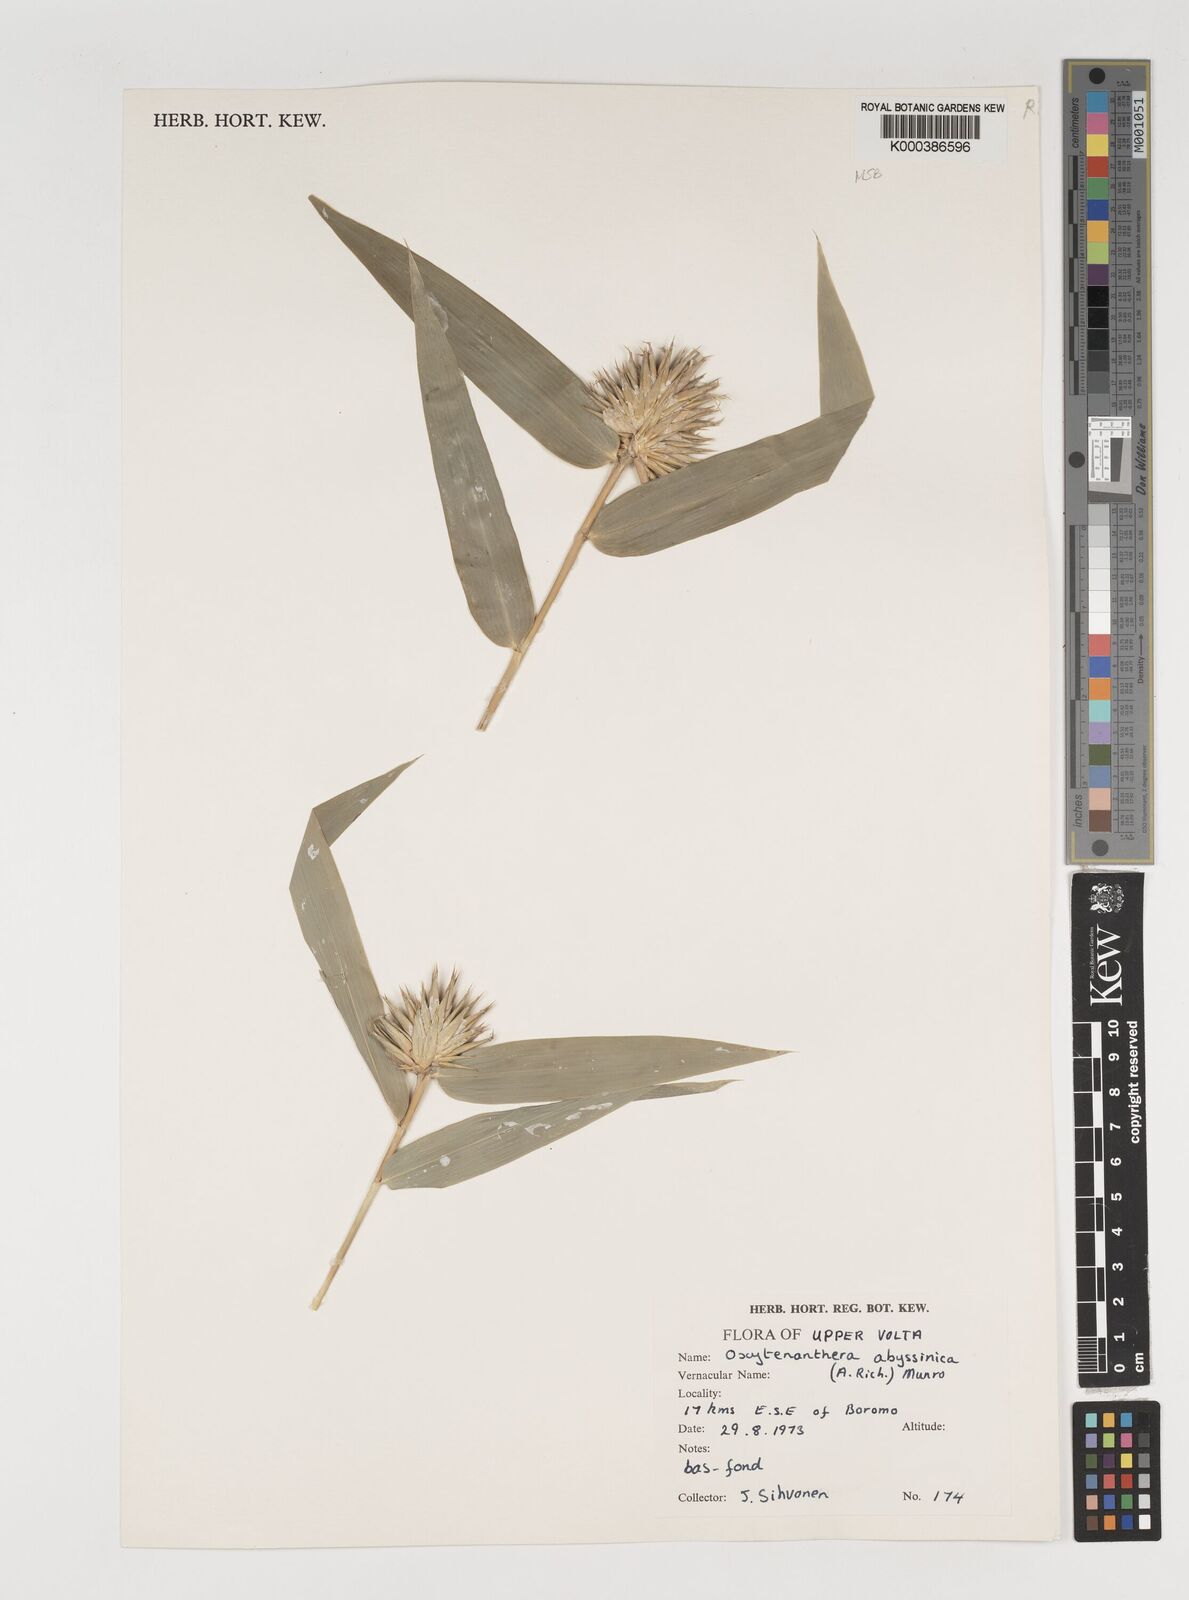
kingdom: Plantae
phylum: Tracheophyta
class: Liliopsida
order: Poales
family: Poaceae
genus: Oxytenanthera
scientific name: Oxytenanthera abyssinica
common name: Wine bamboo
